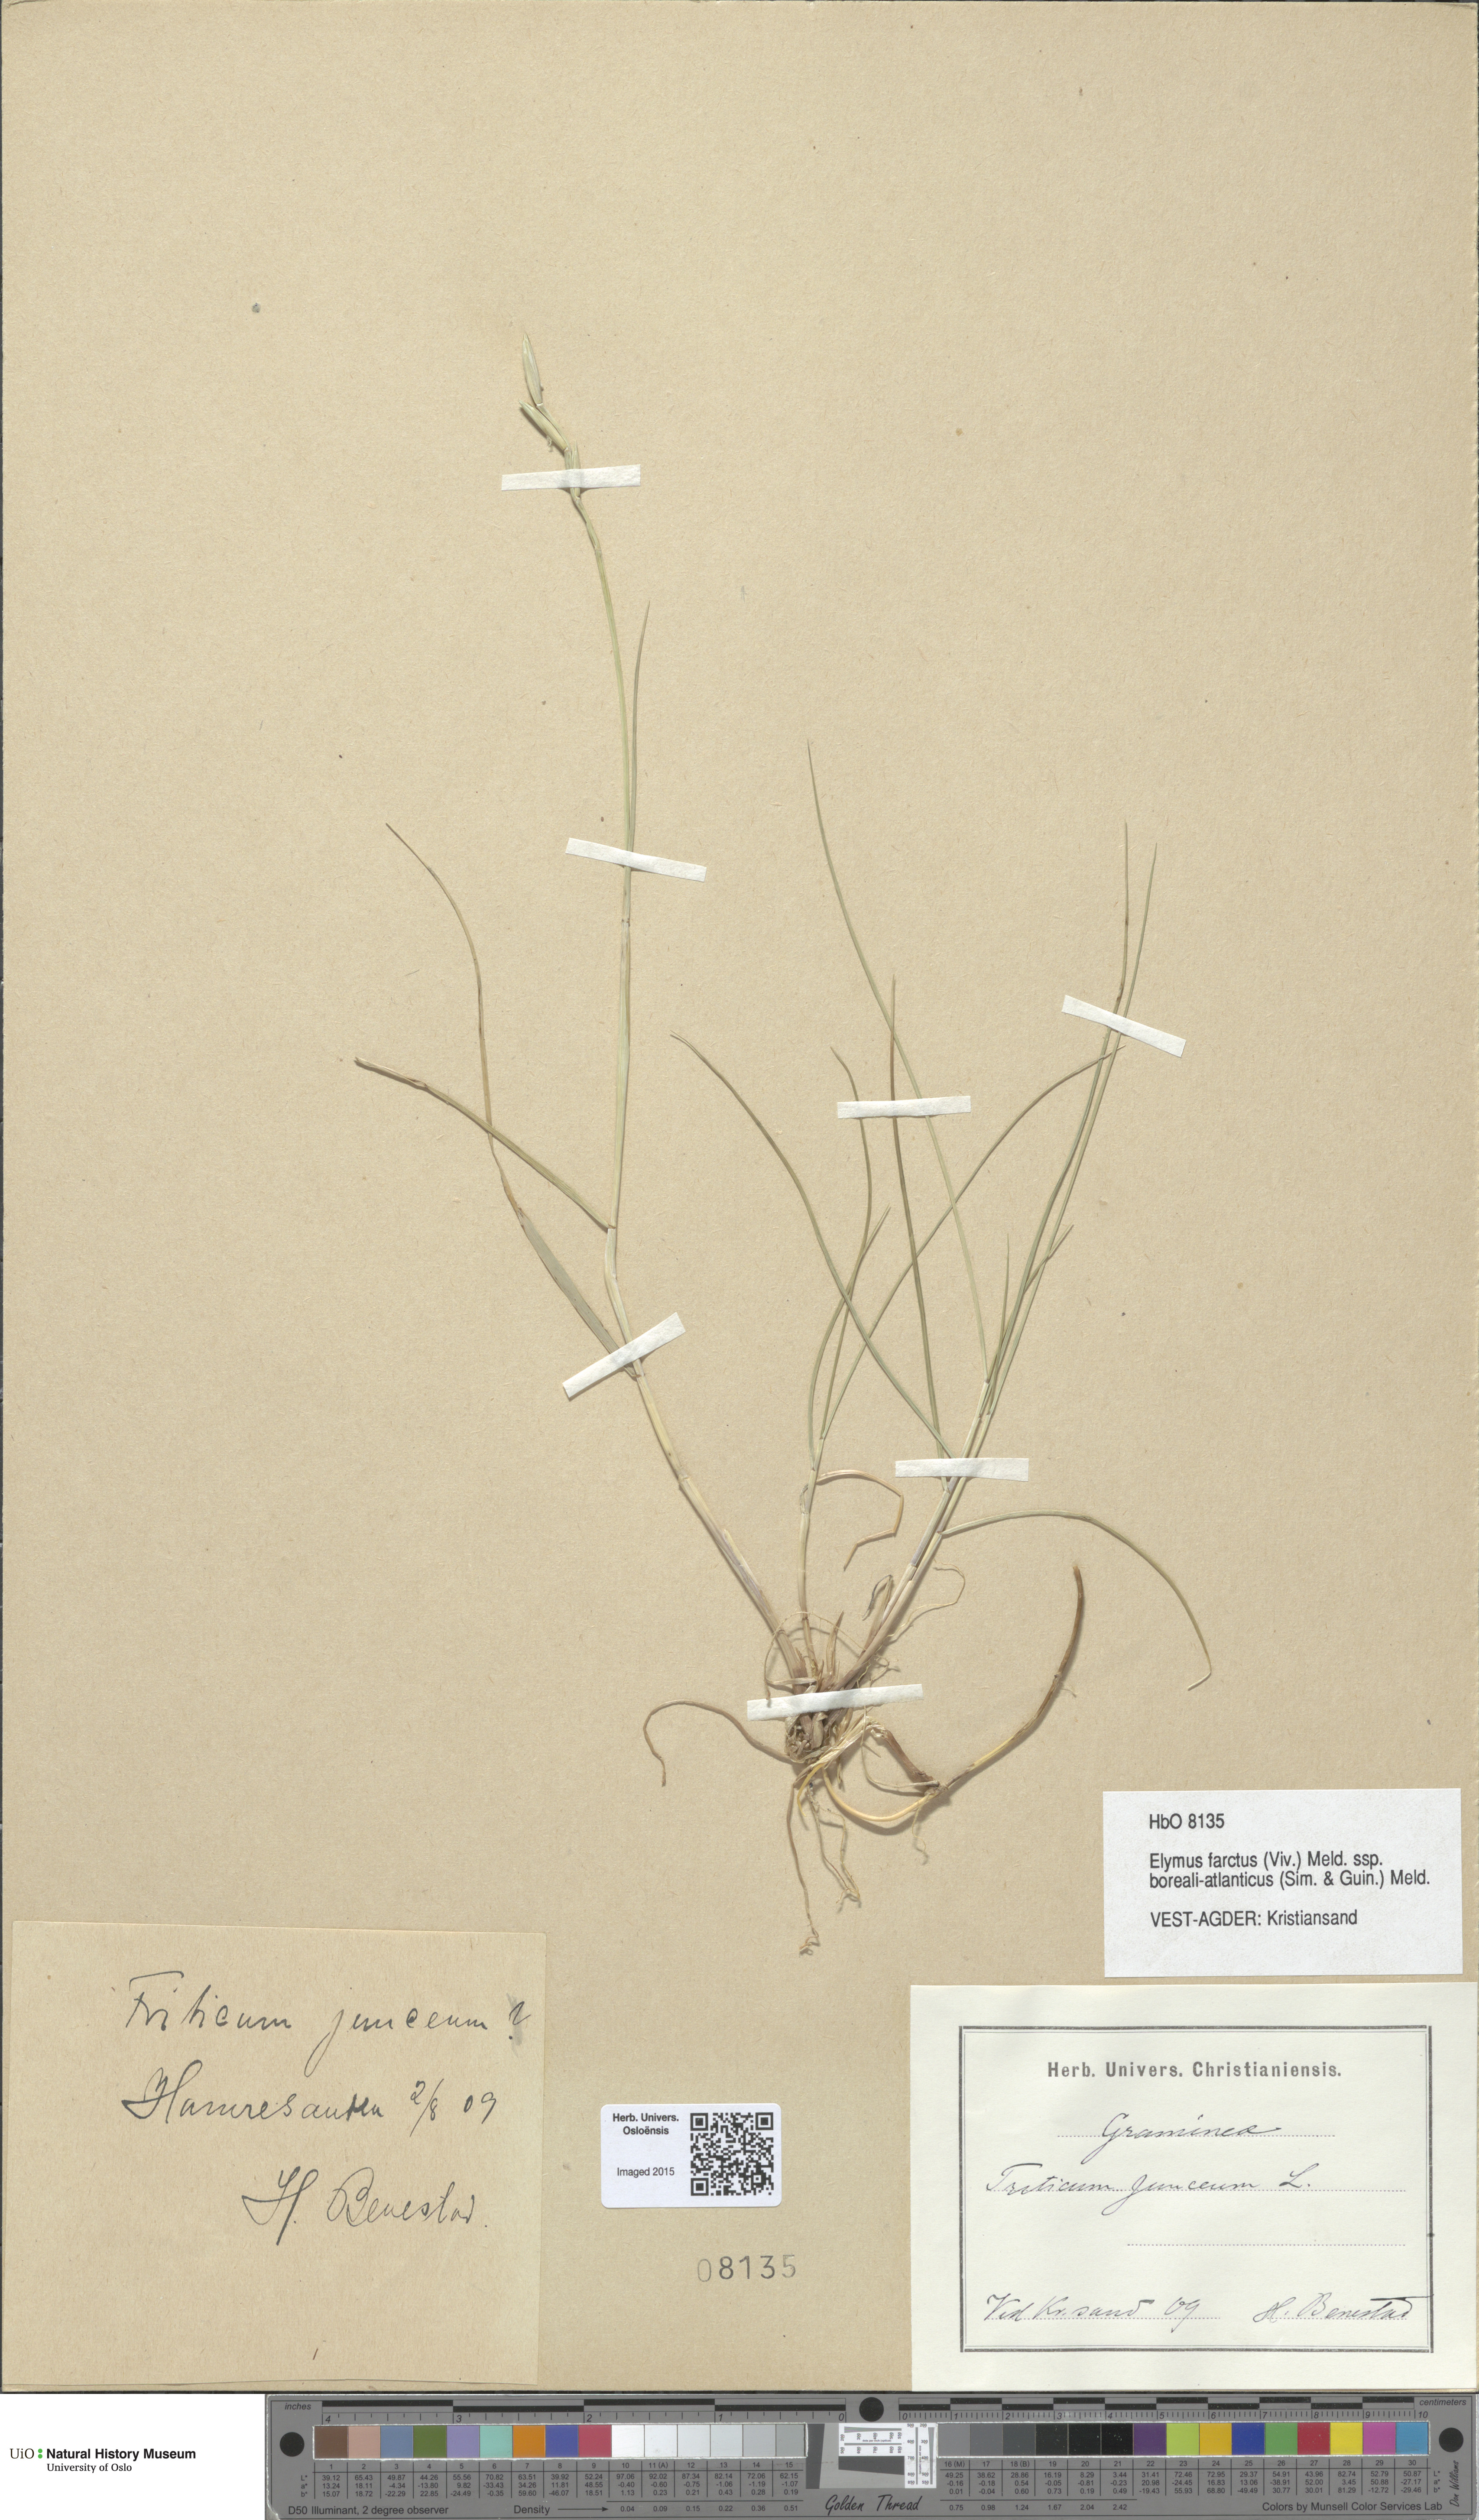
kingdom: Plantae
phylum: Tracheophyta
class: Liliopsida
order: Poales
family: Poaceae
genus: Thinopyrum
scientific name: Thinopyrum junceiforme
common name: Sea couch
